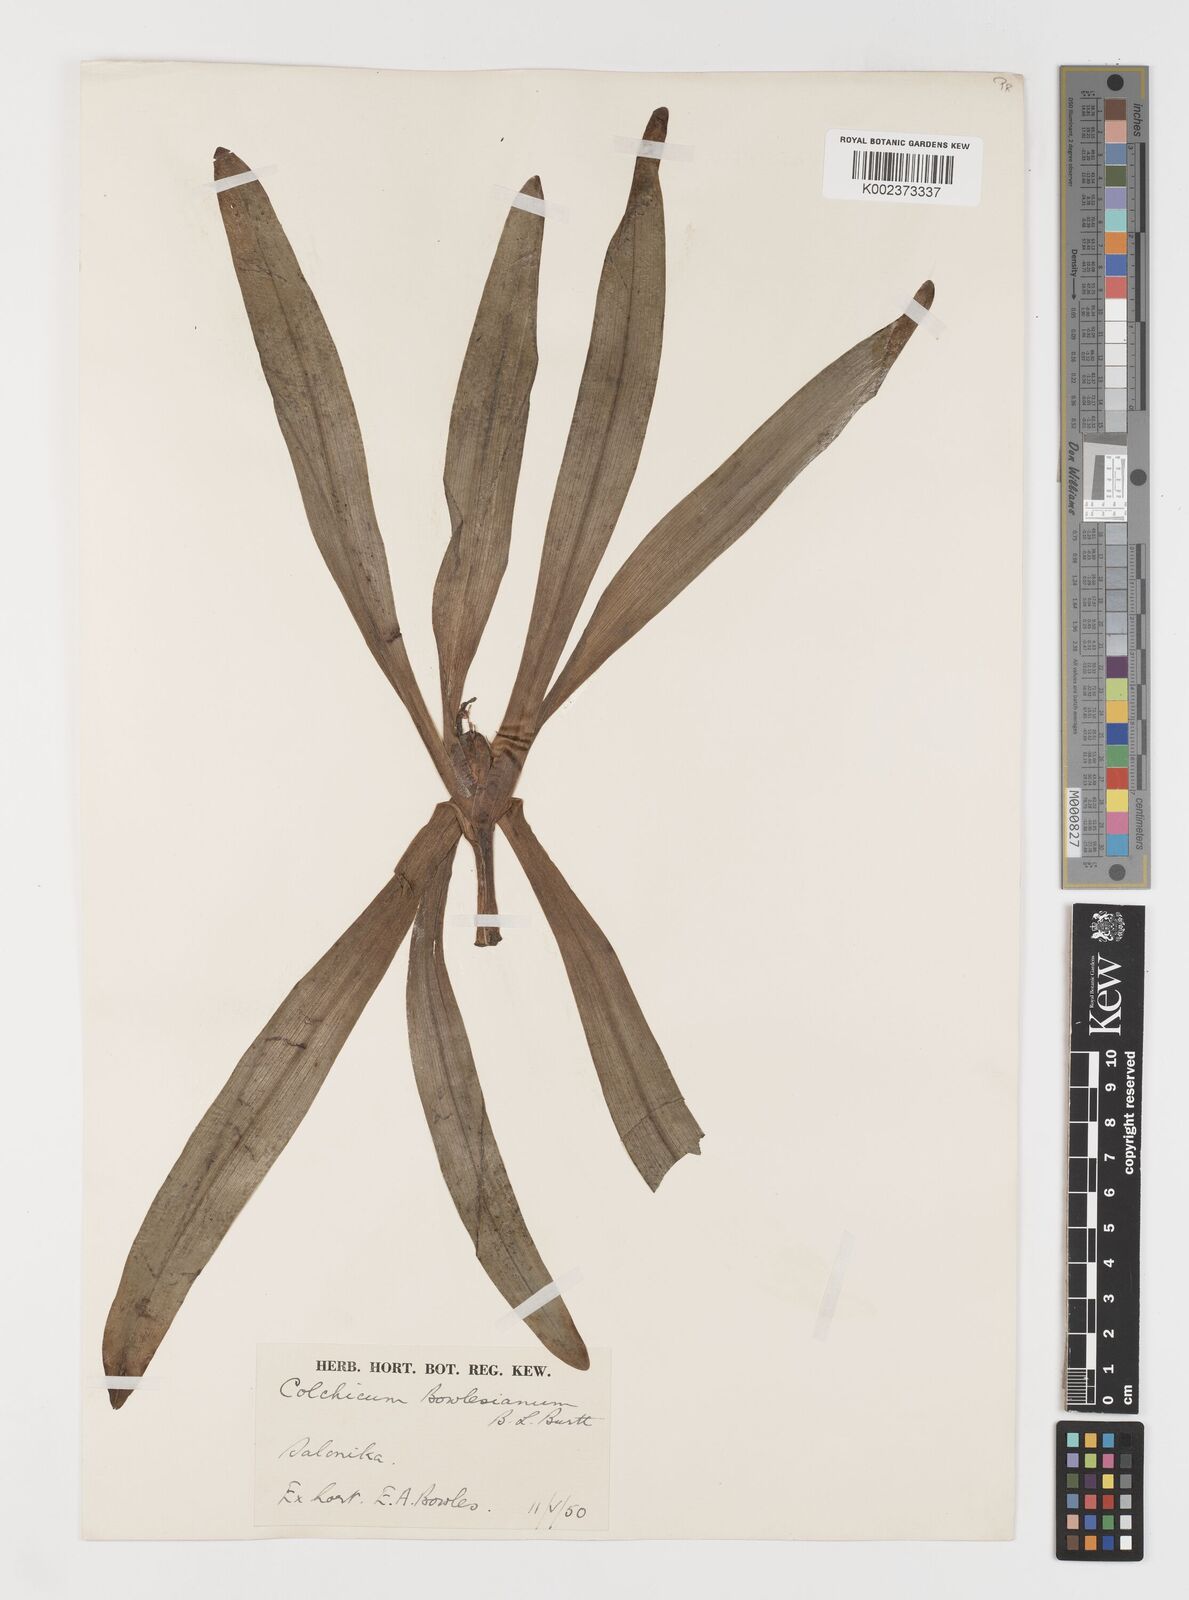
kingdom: Plantae
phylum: Tracheophyta
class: Liliopsida
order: Liliales
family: Colchicaceae
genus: Colchicum
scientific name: Colchicum bivonae
